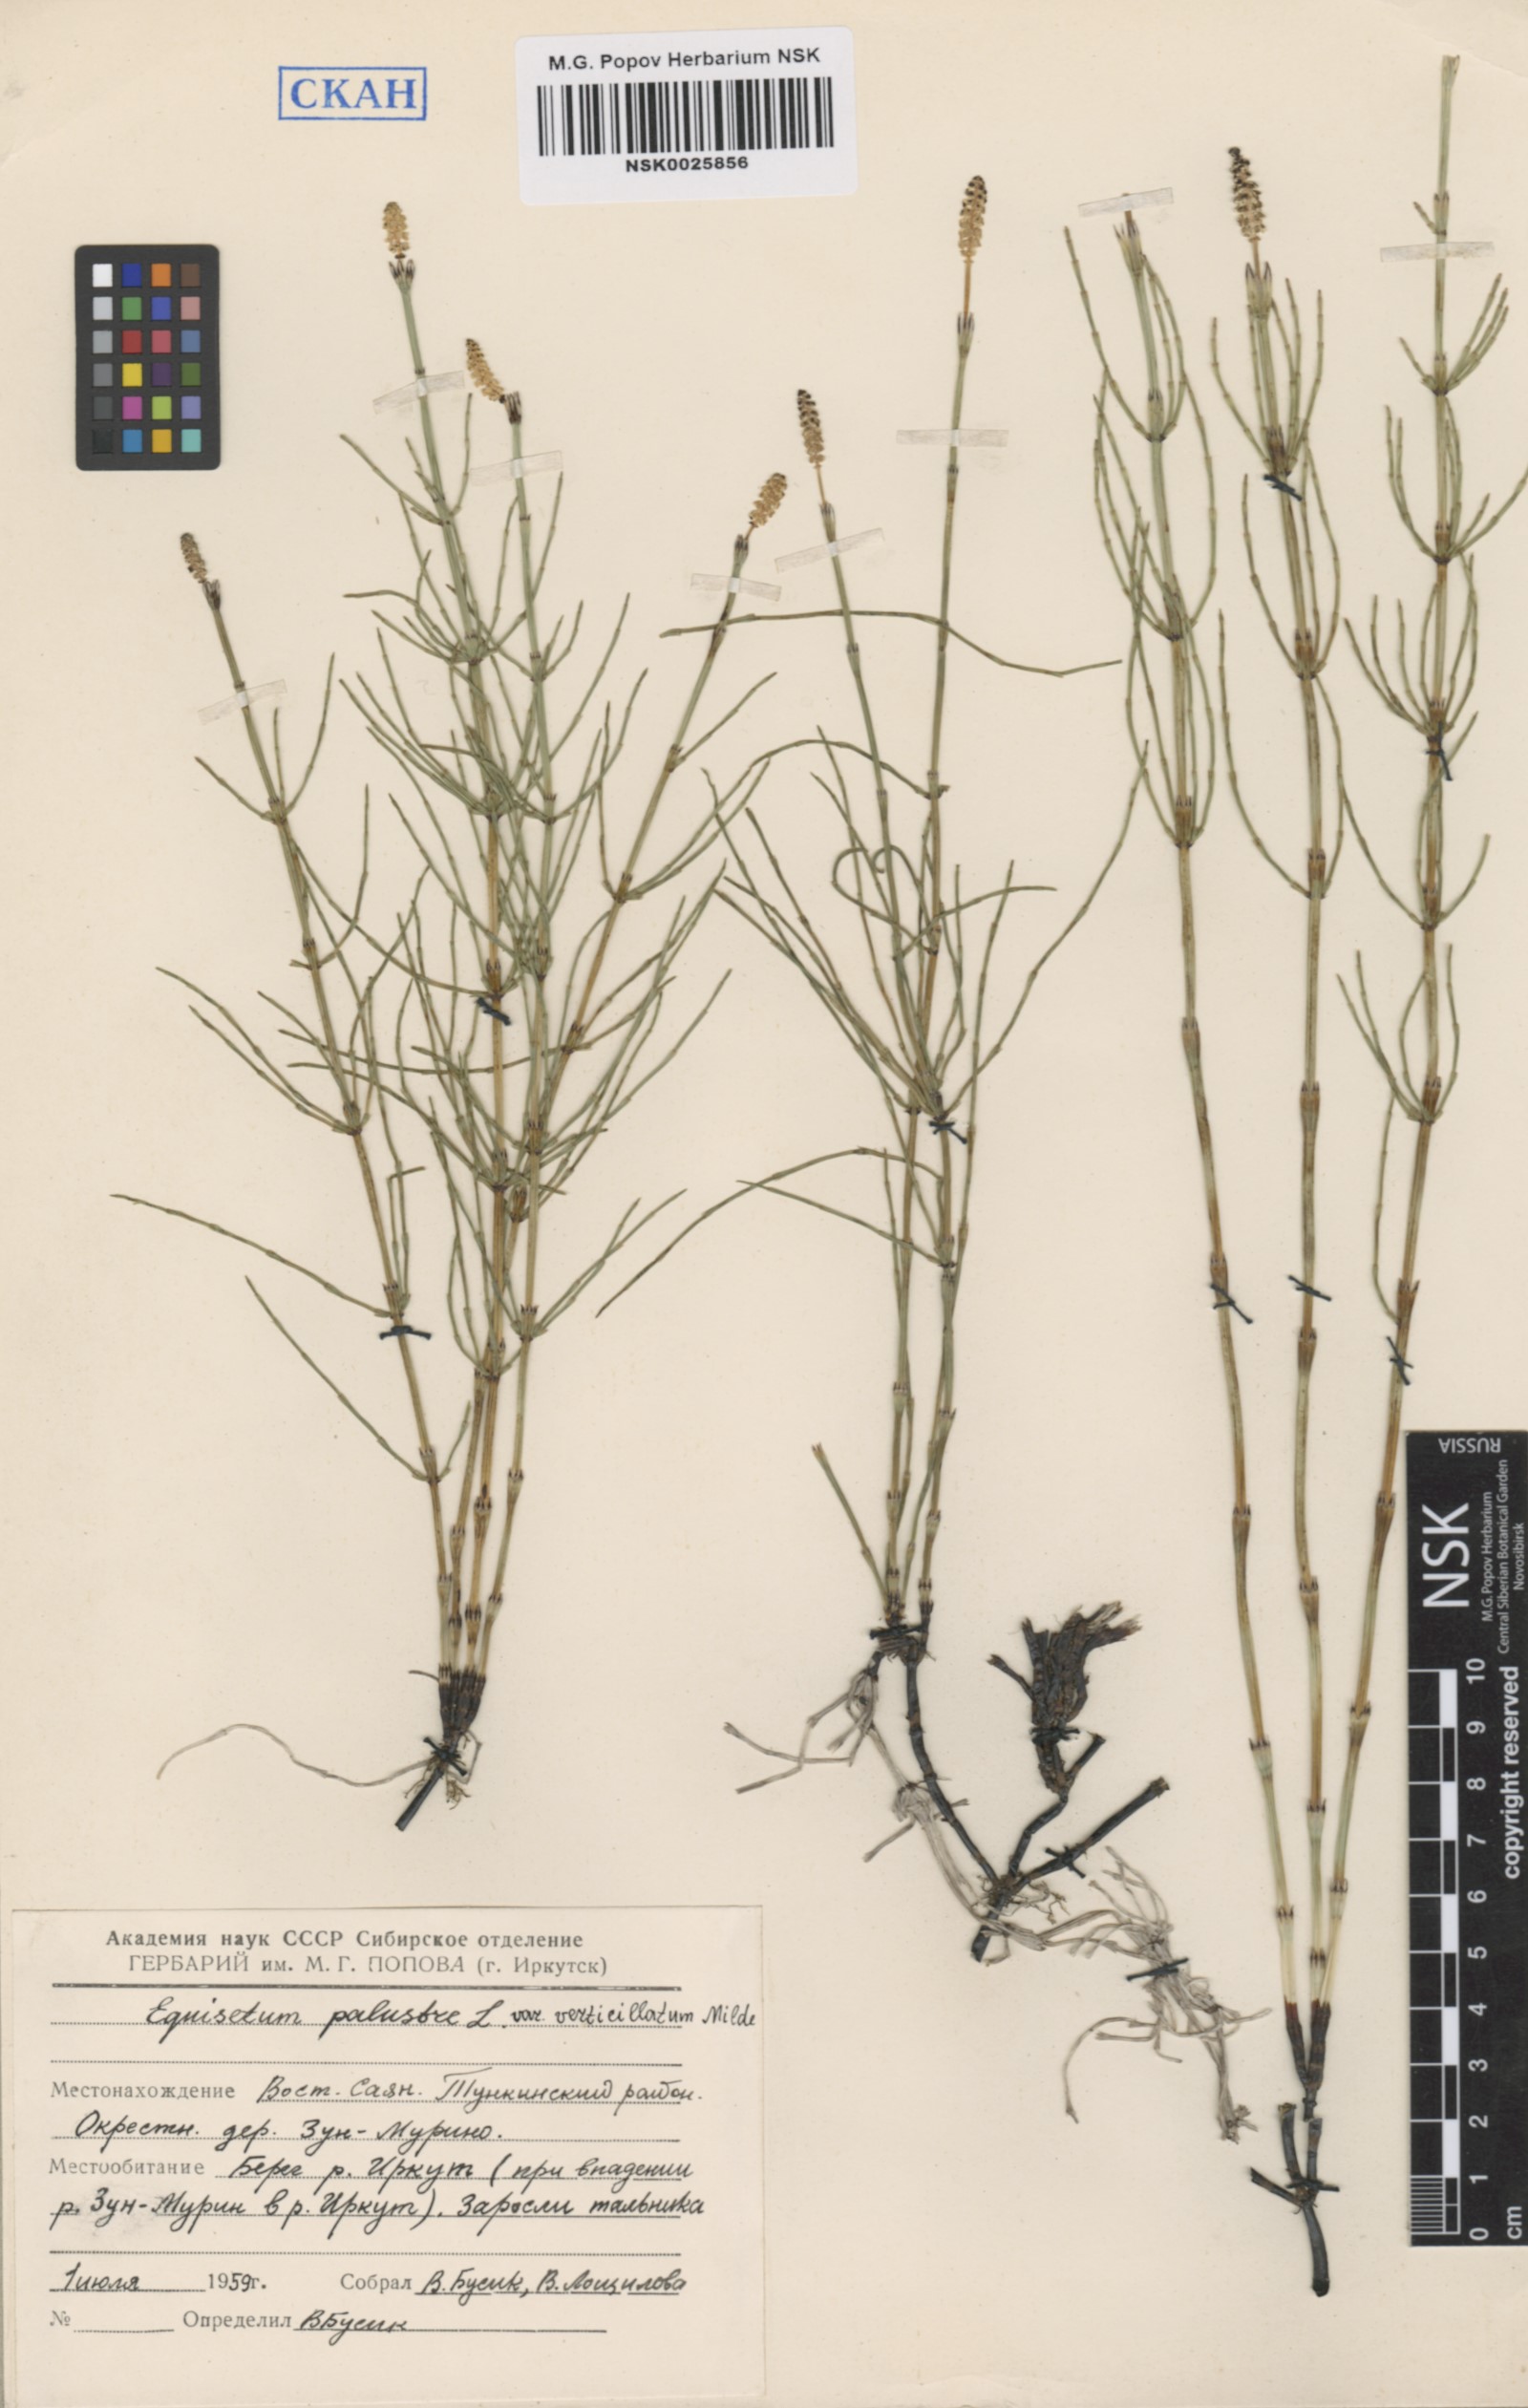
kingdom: Plantae
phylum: Tracheophyta
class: Polypodiopsida
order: Equisetales
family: Equisetaceae
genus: Equisetum
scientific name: Equisetum palustre
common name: Marsh horsetail
